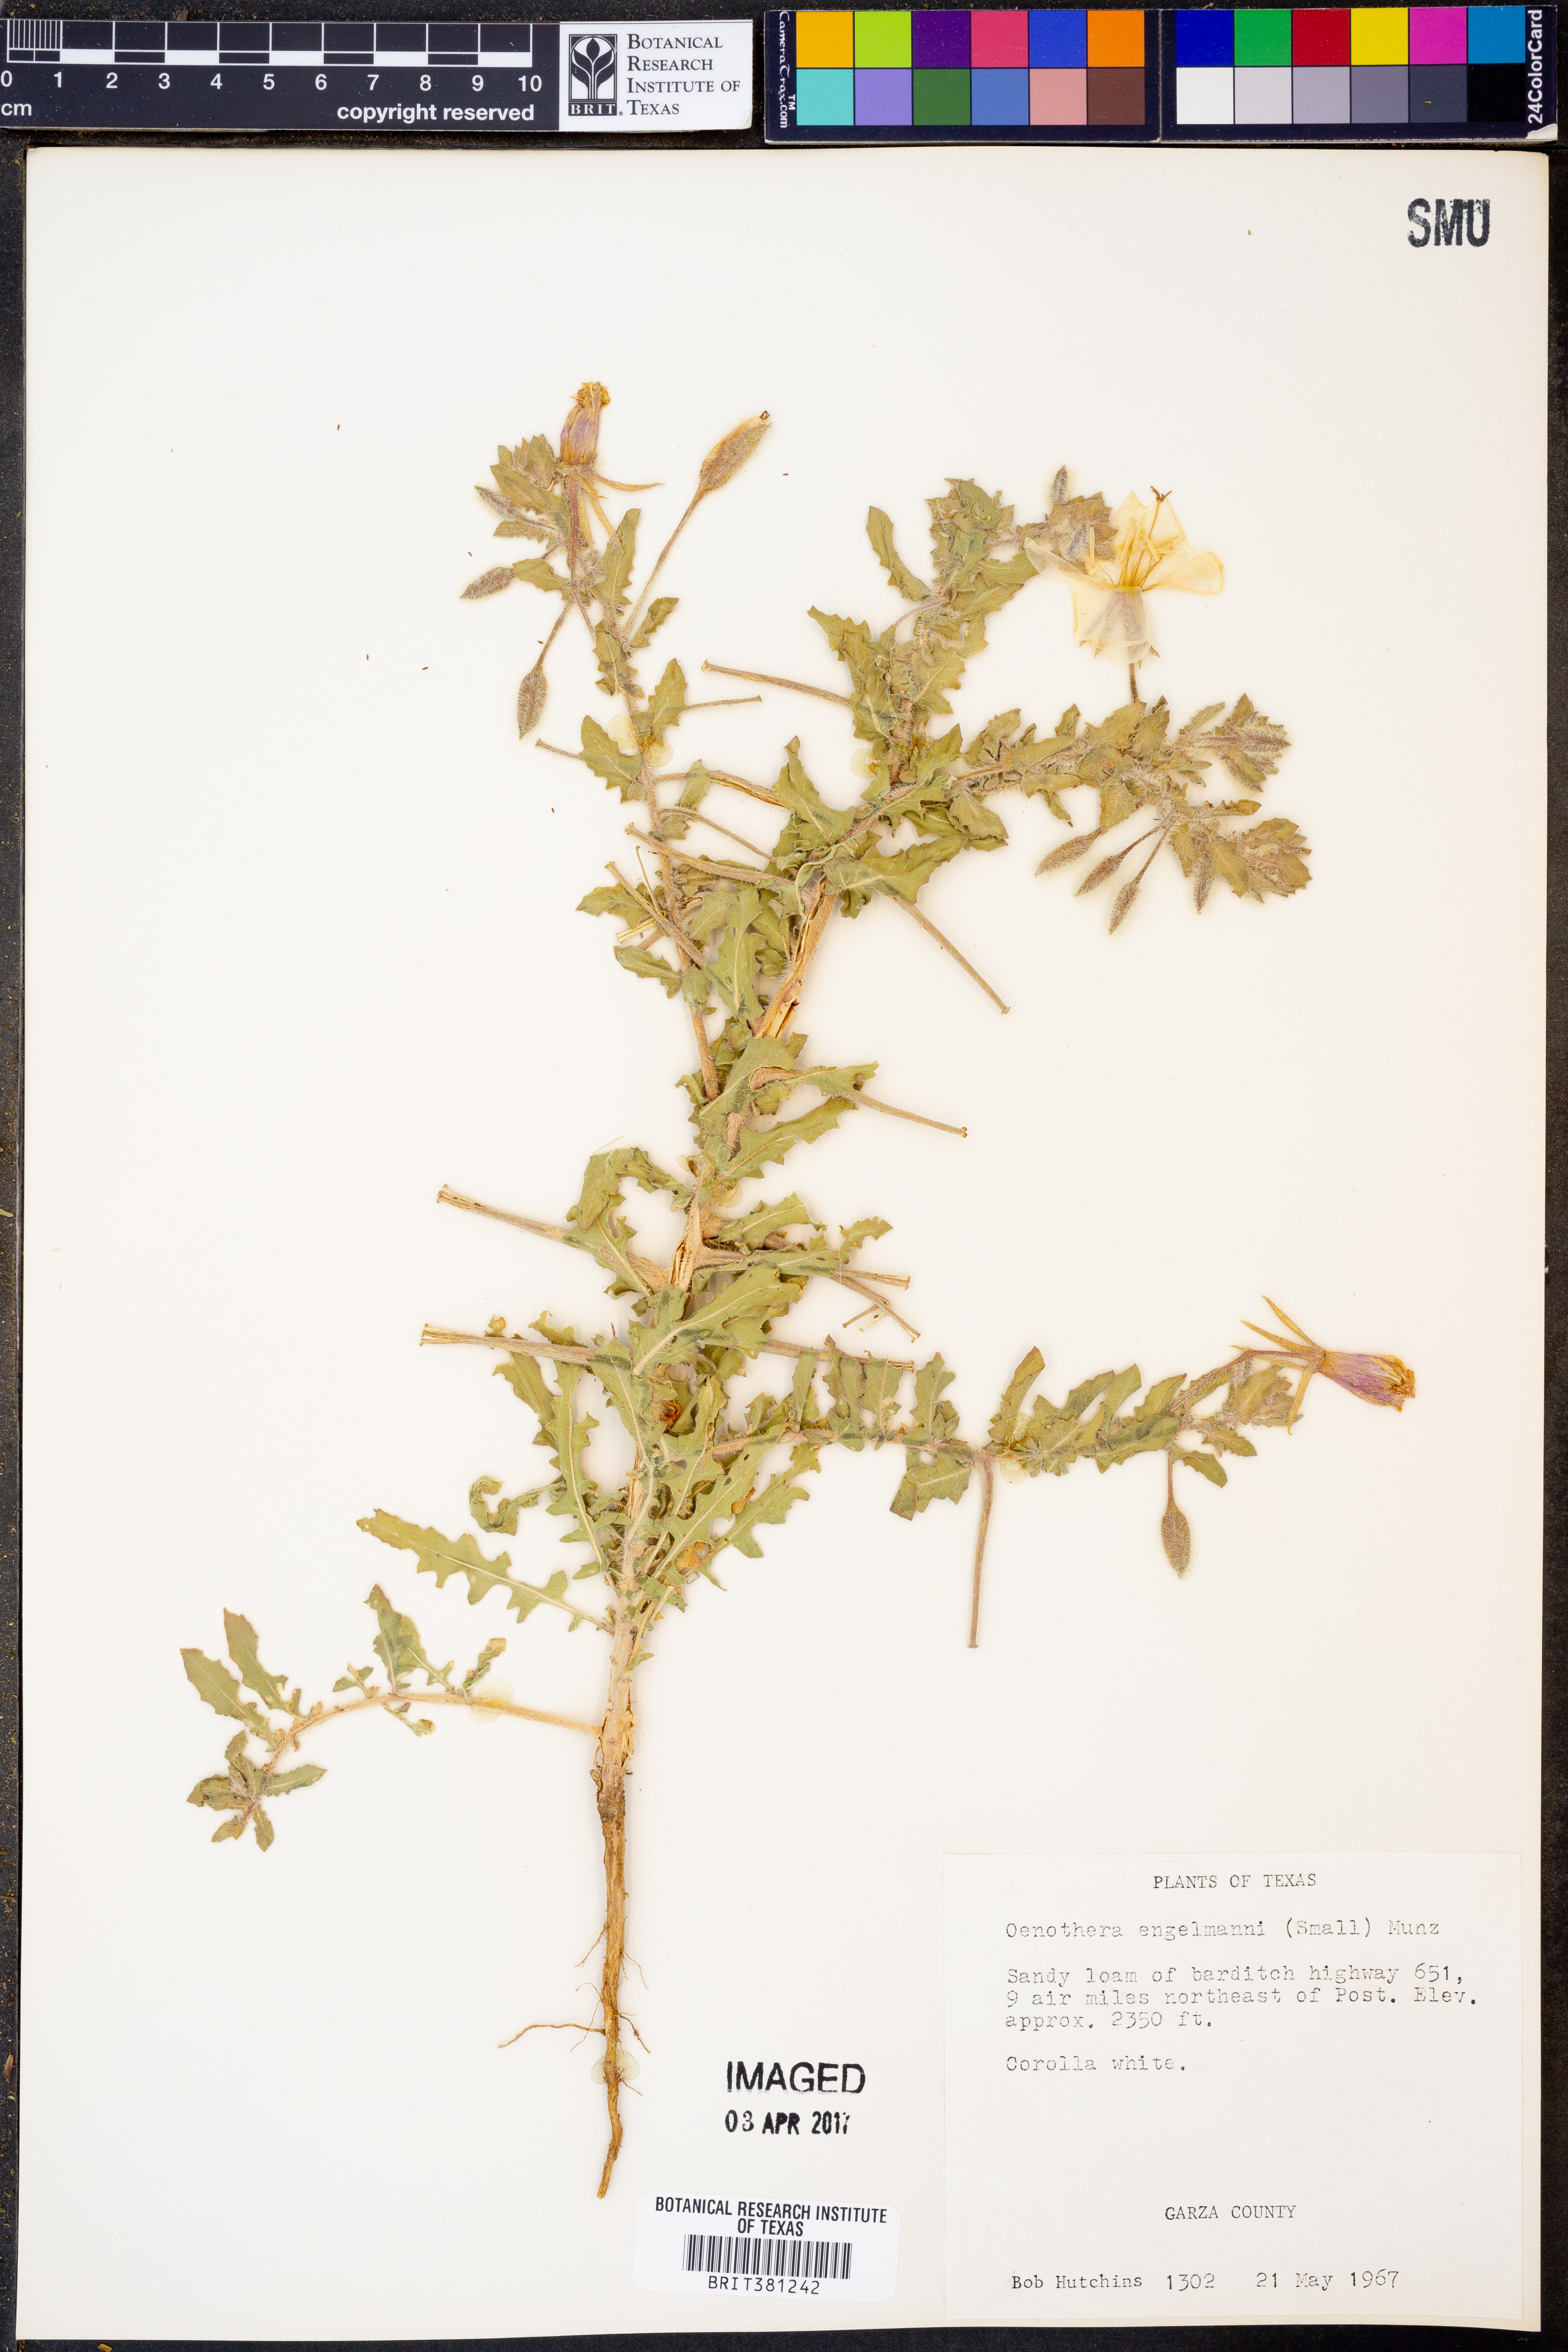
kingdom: Plantae
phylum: Tracheophyta
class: Magnoliopsida
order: Myrtales
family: Onagraceae
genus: Oenothera
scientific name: Oenothera engelmannii
